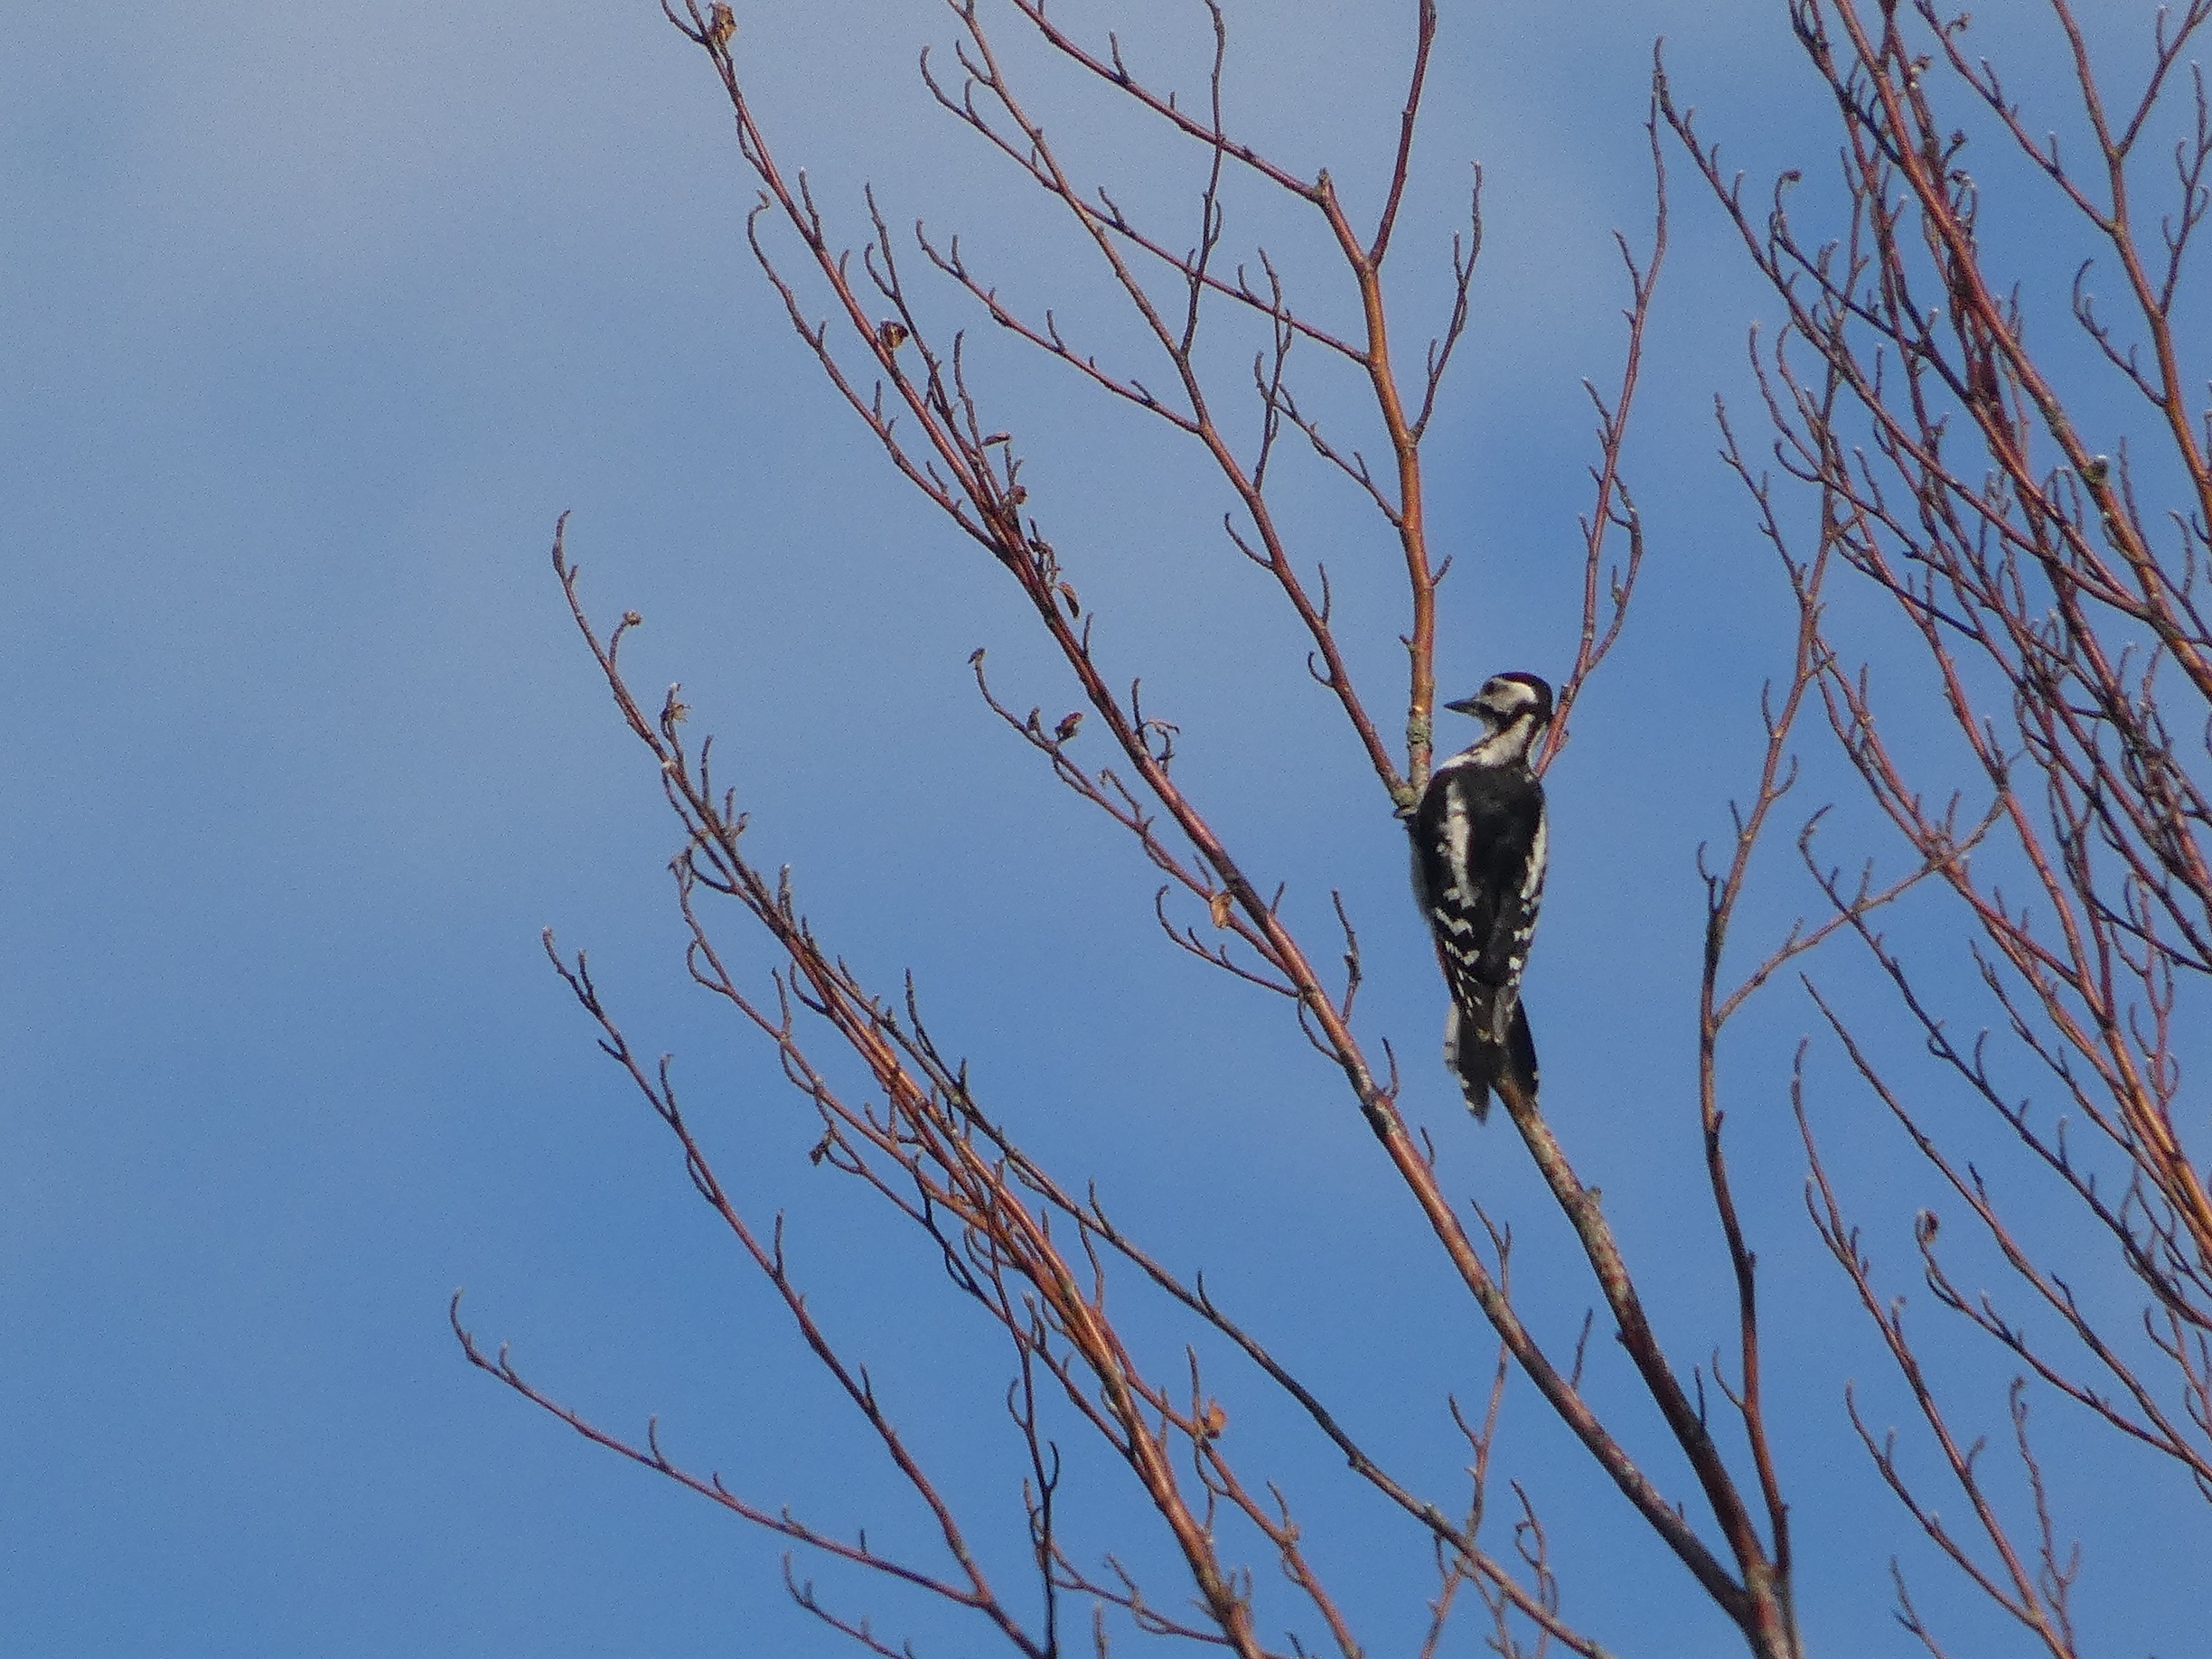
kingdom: Animalia
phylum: Chordata
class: Aves
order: Piciformes
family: Picidae
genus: Dendrocopos
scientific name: Dendrocopos major
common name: Stor flagspætte
